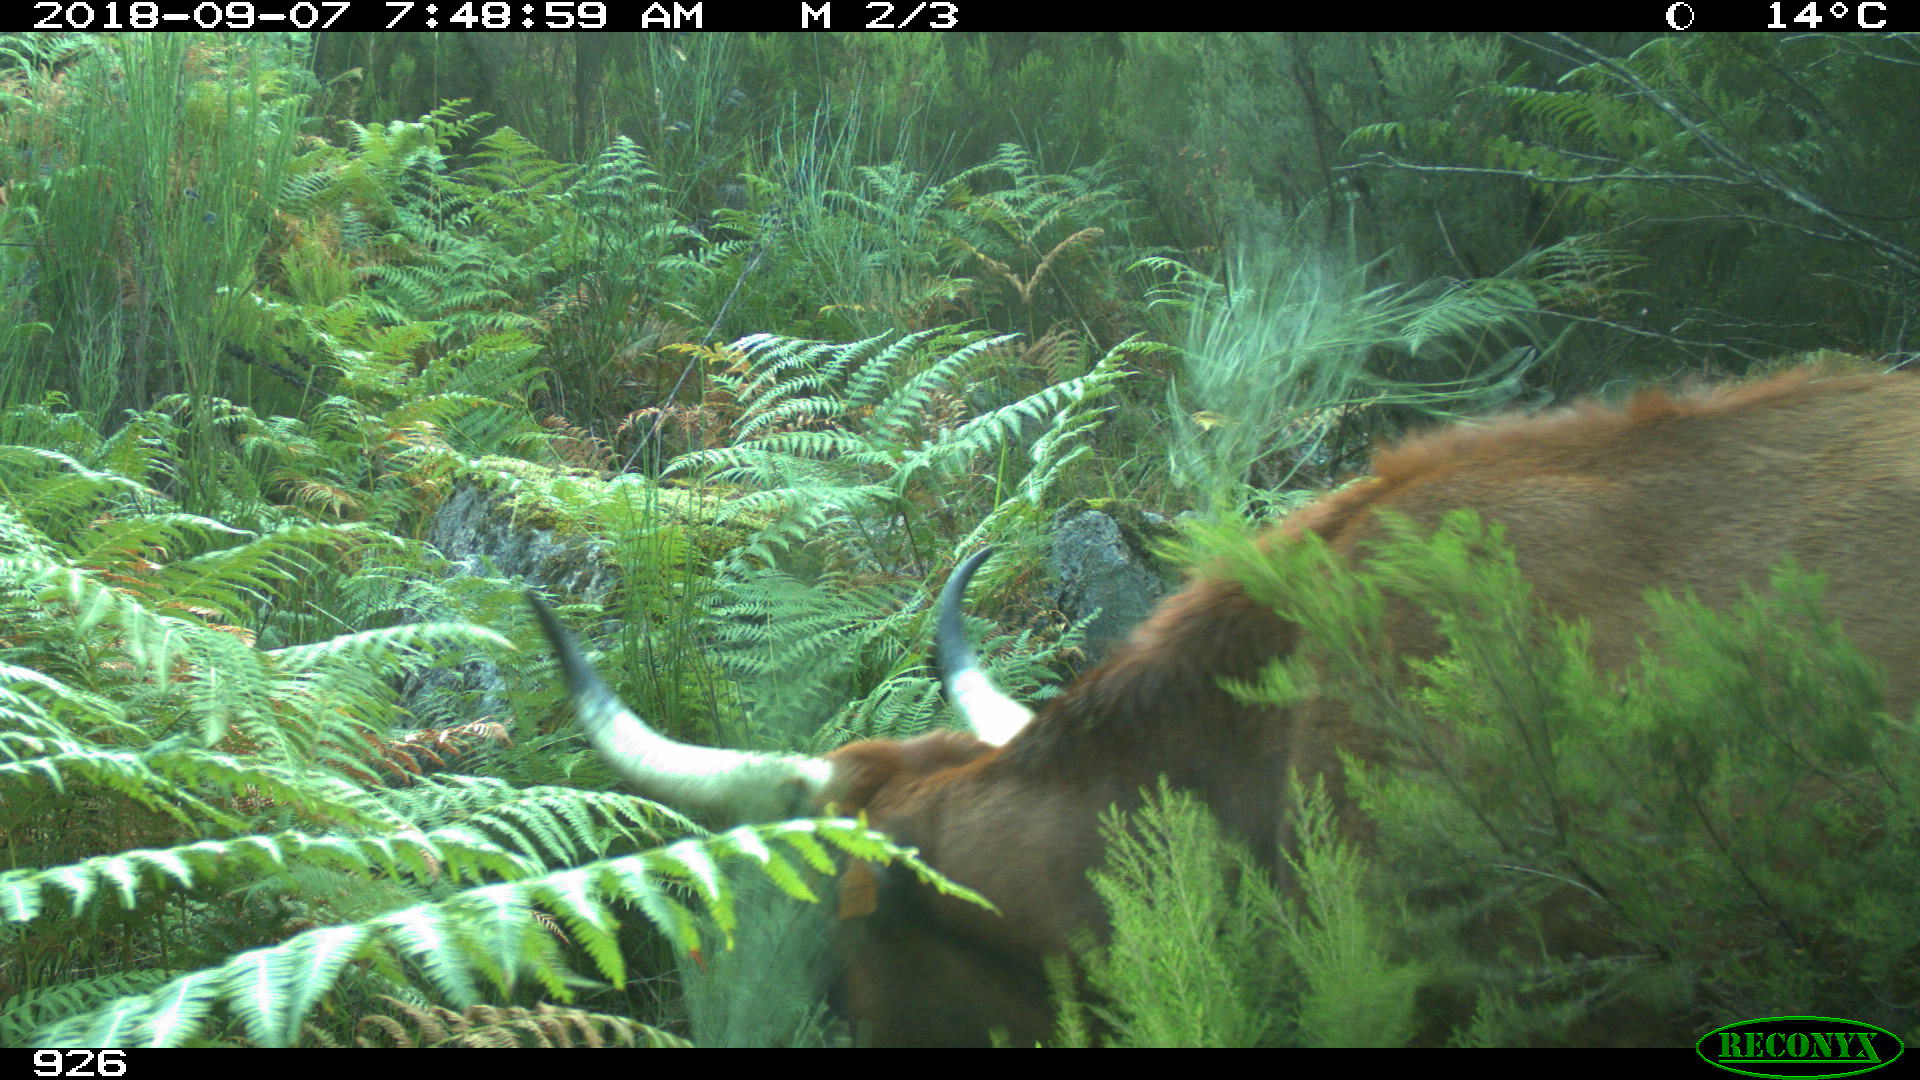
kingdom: Animalia
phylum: Chordata
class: Mammalia
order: Artiodactyla
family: Bovidae
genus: Bos
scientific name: Bos taurus
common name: Domesticated cattle
